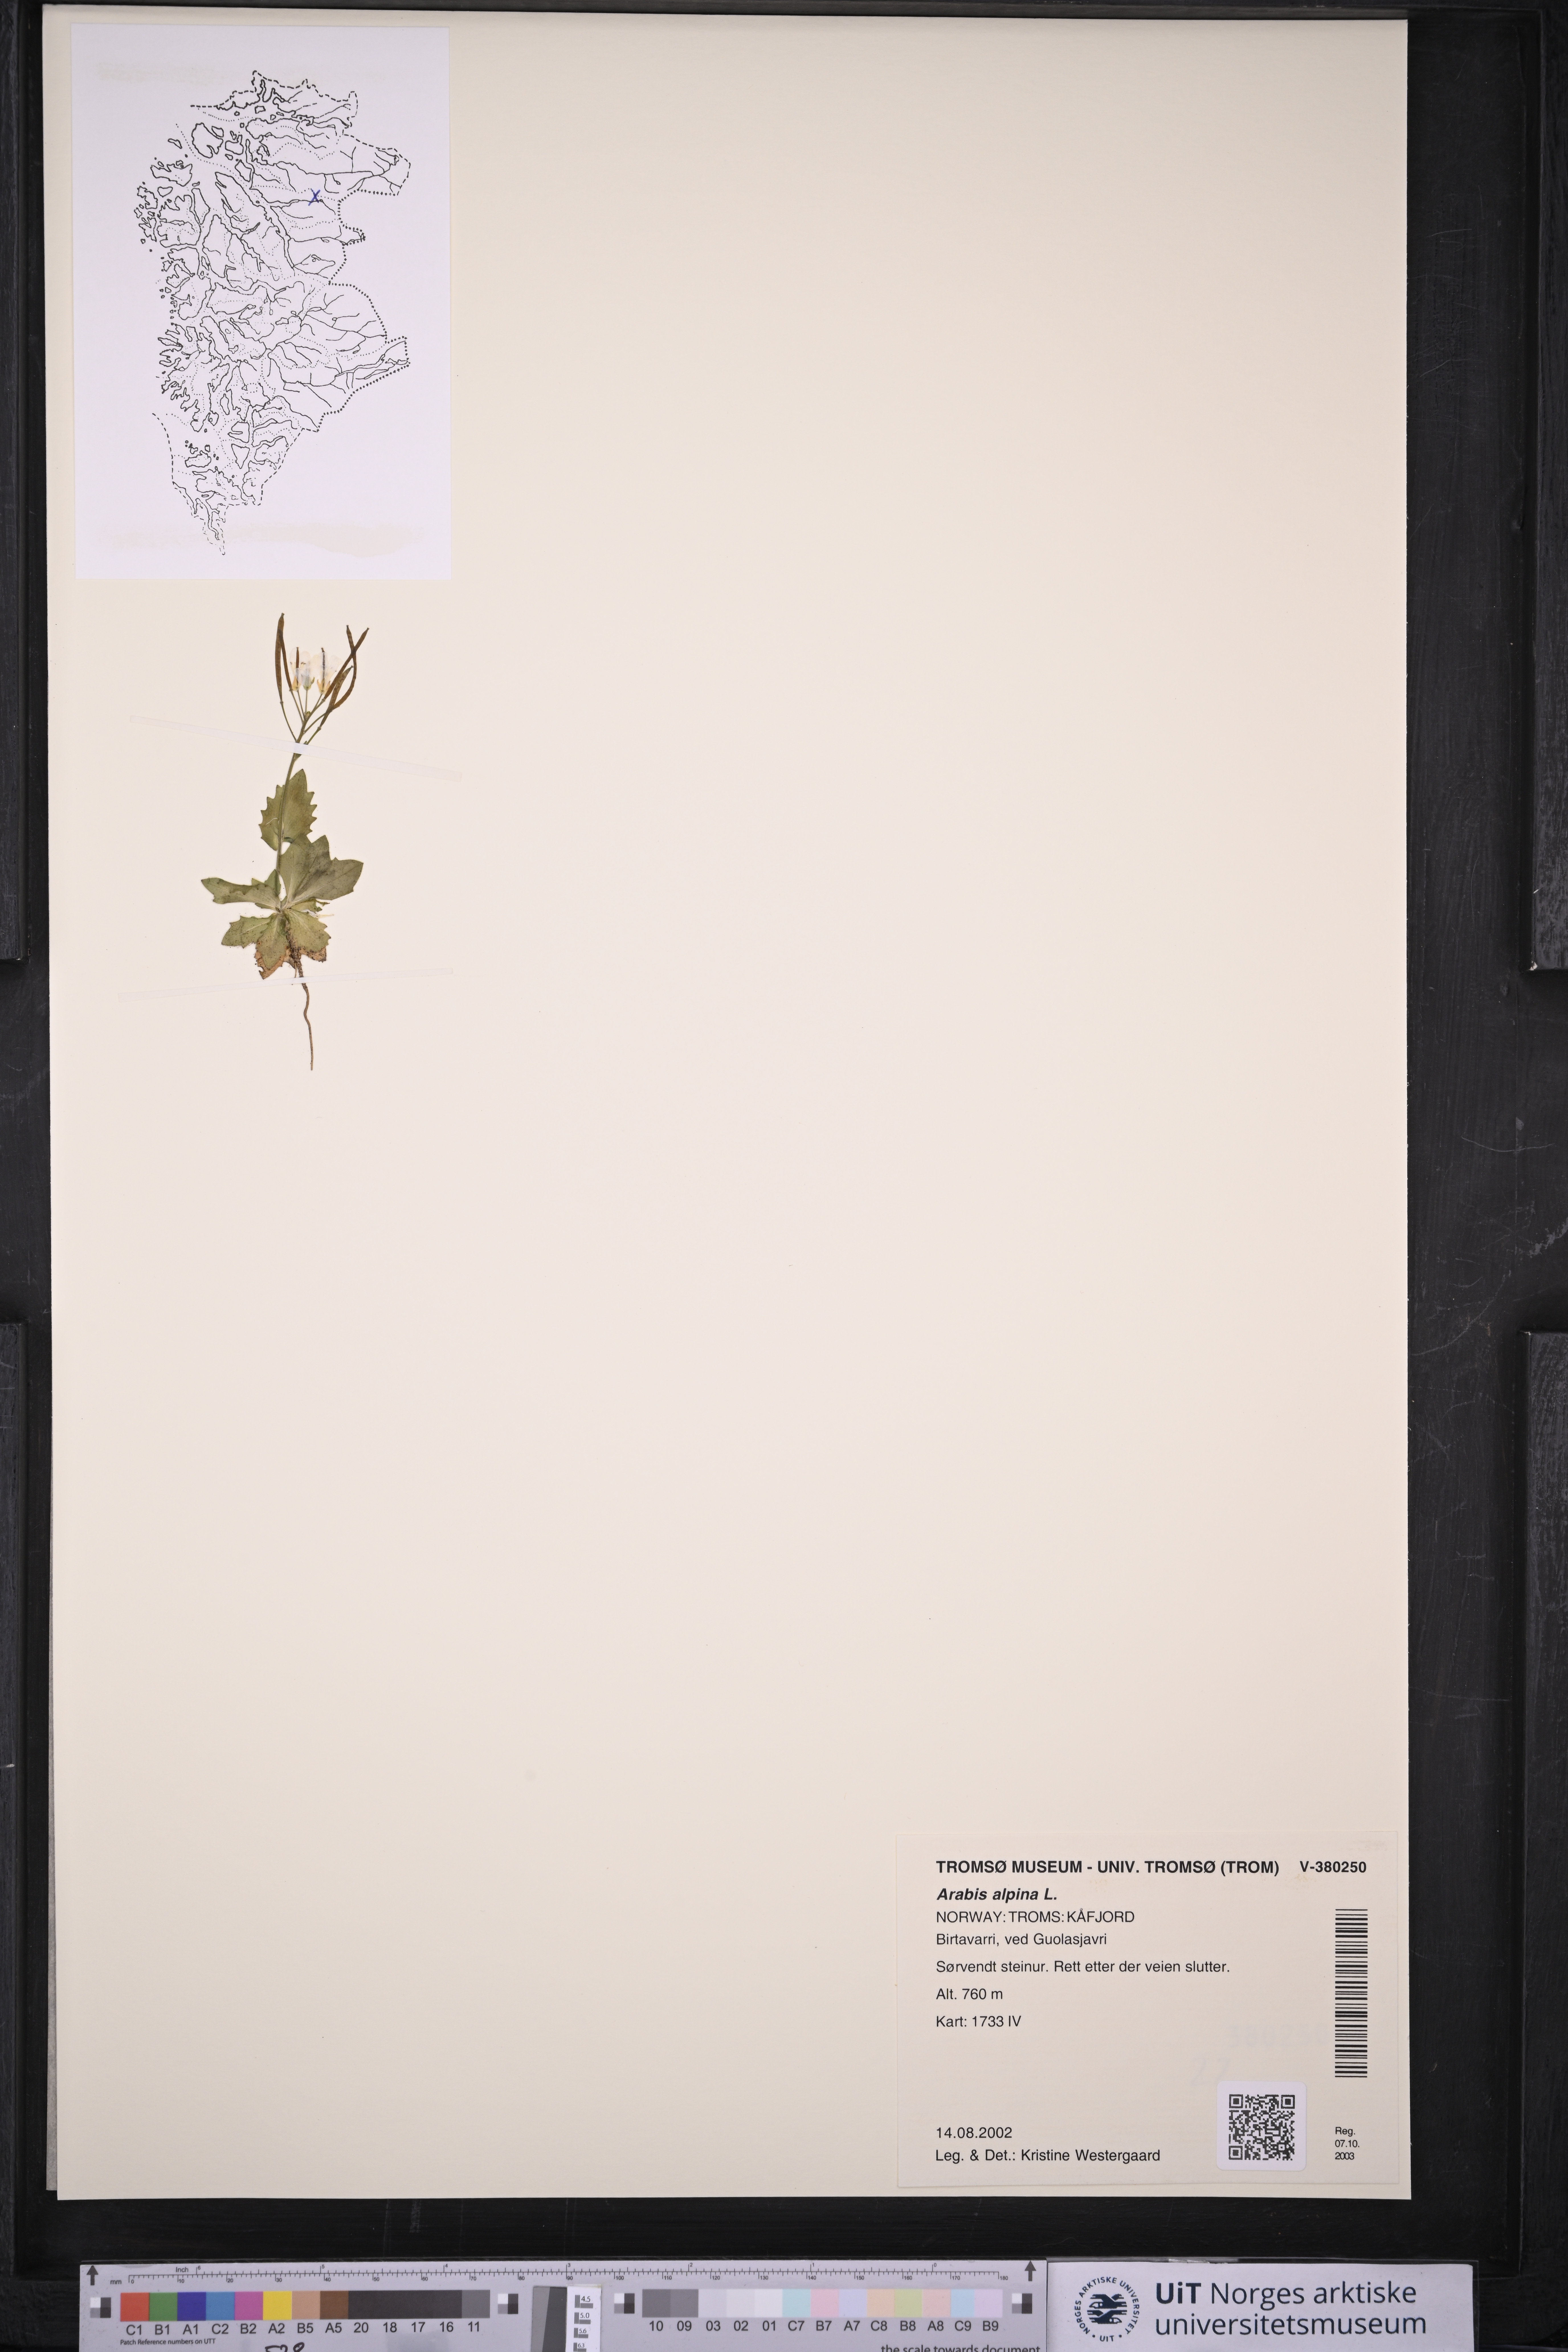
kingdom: Plantae
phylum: Tracheophyta
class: Magnoliopsida
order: Brassicales
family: Brassicaceae
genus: Arabis
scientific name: Arabis alpina
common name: Alpine rock-cress
